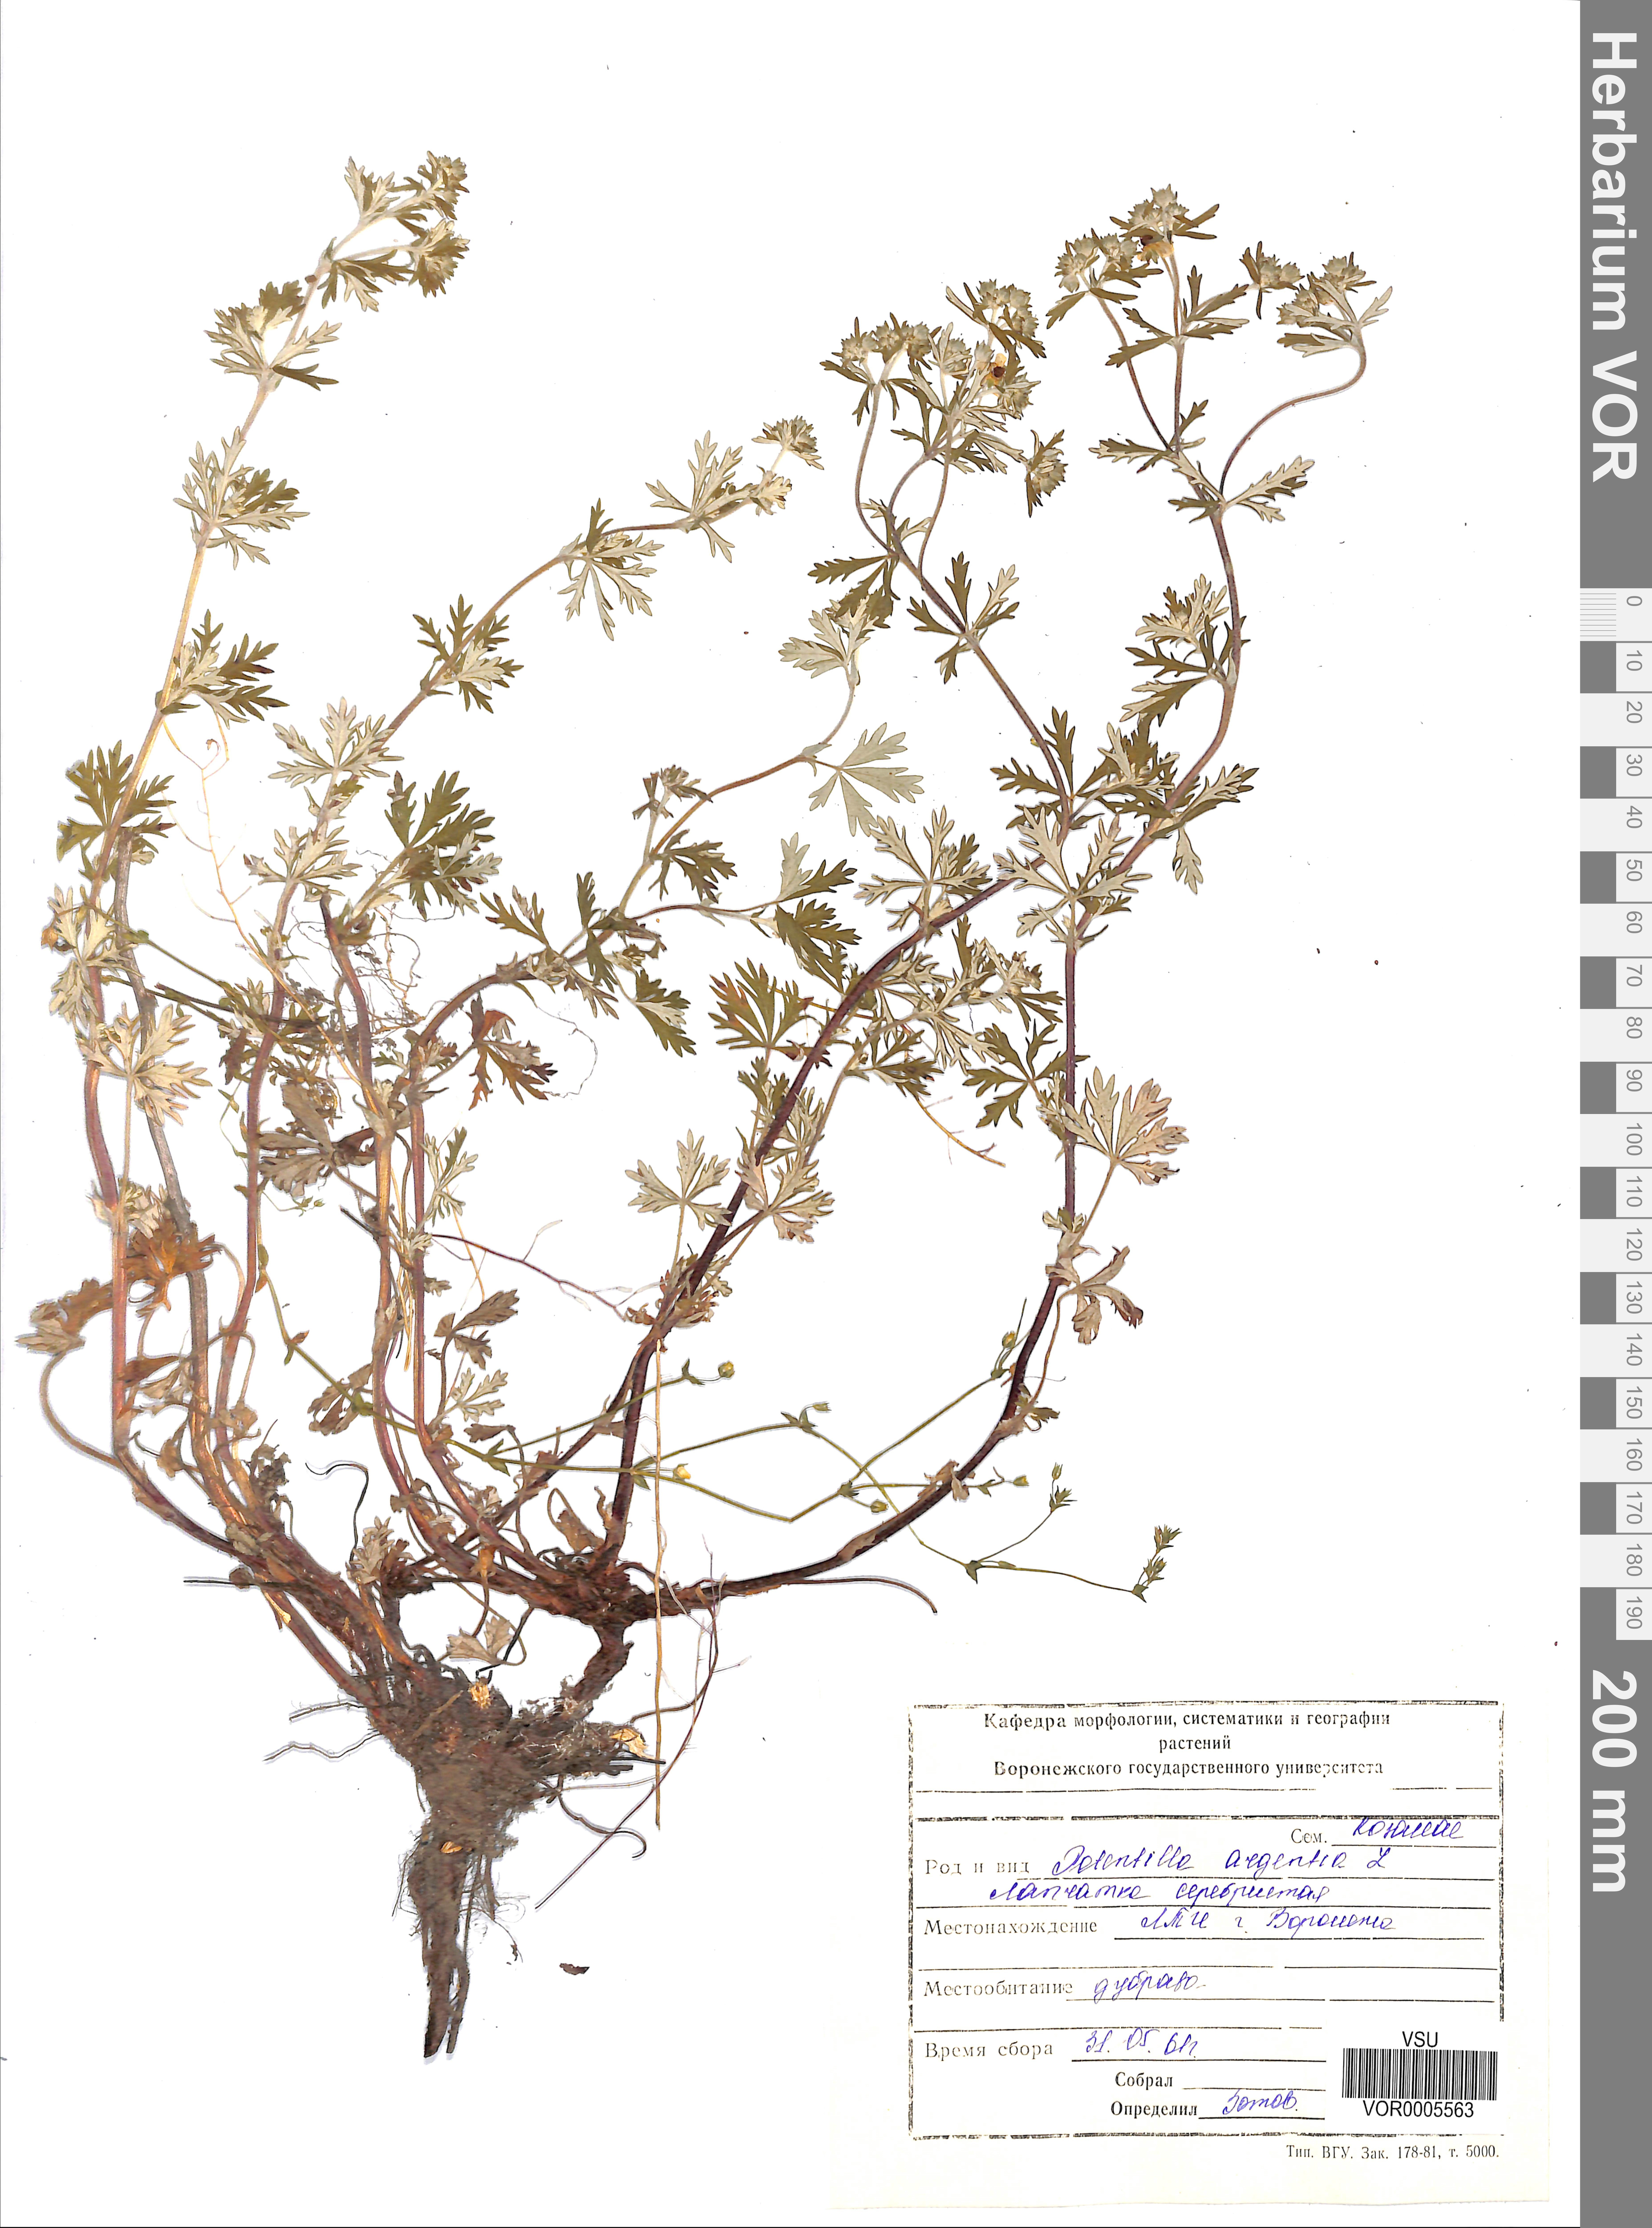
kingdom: Plantae
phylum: Tracheophyta
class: Magnoliopsida
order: Rosales
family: Rosaceae
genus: Potentilla
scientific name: Potentilla argentea
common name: Hoary cinquefoil
